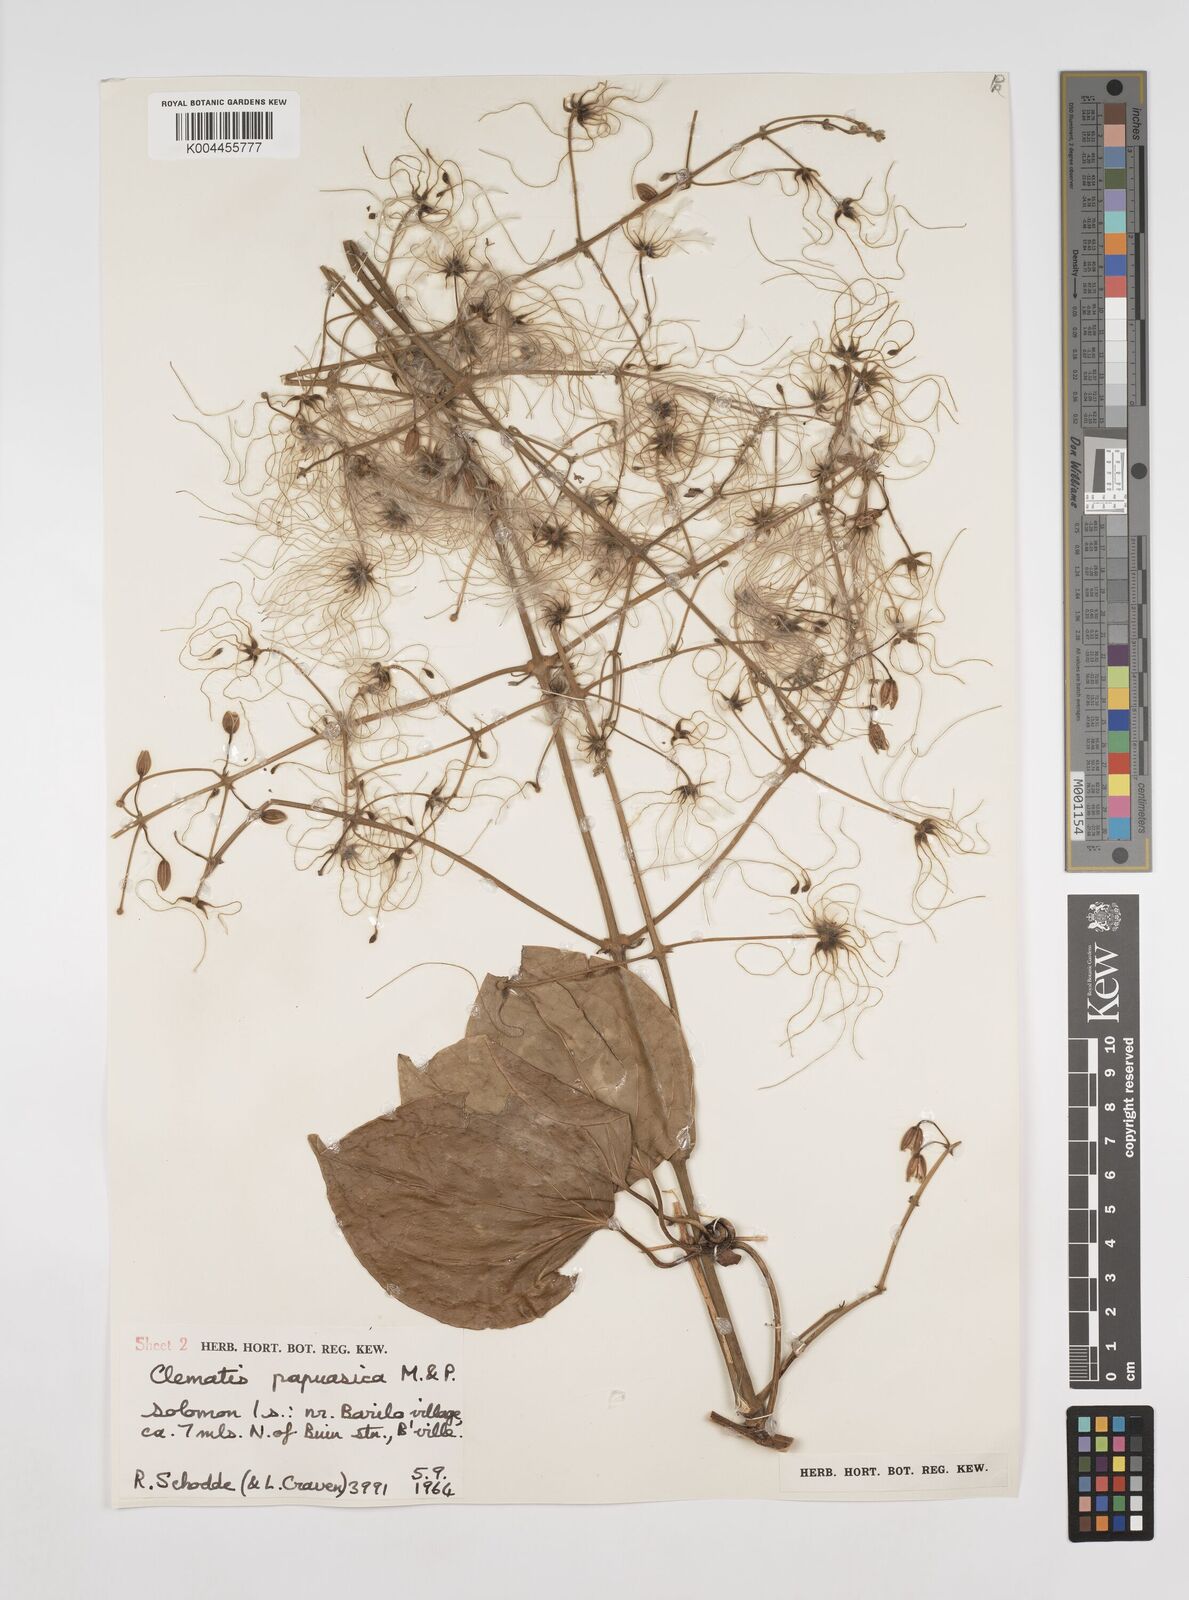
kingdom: Plantae
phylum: Tracheophyta
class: Magnoliopsida
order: Ranunculales
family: Ranunculaceae
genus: Clematis
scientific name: Clematis papuasica
